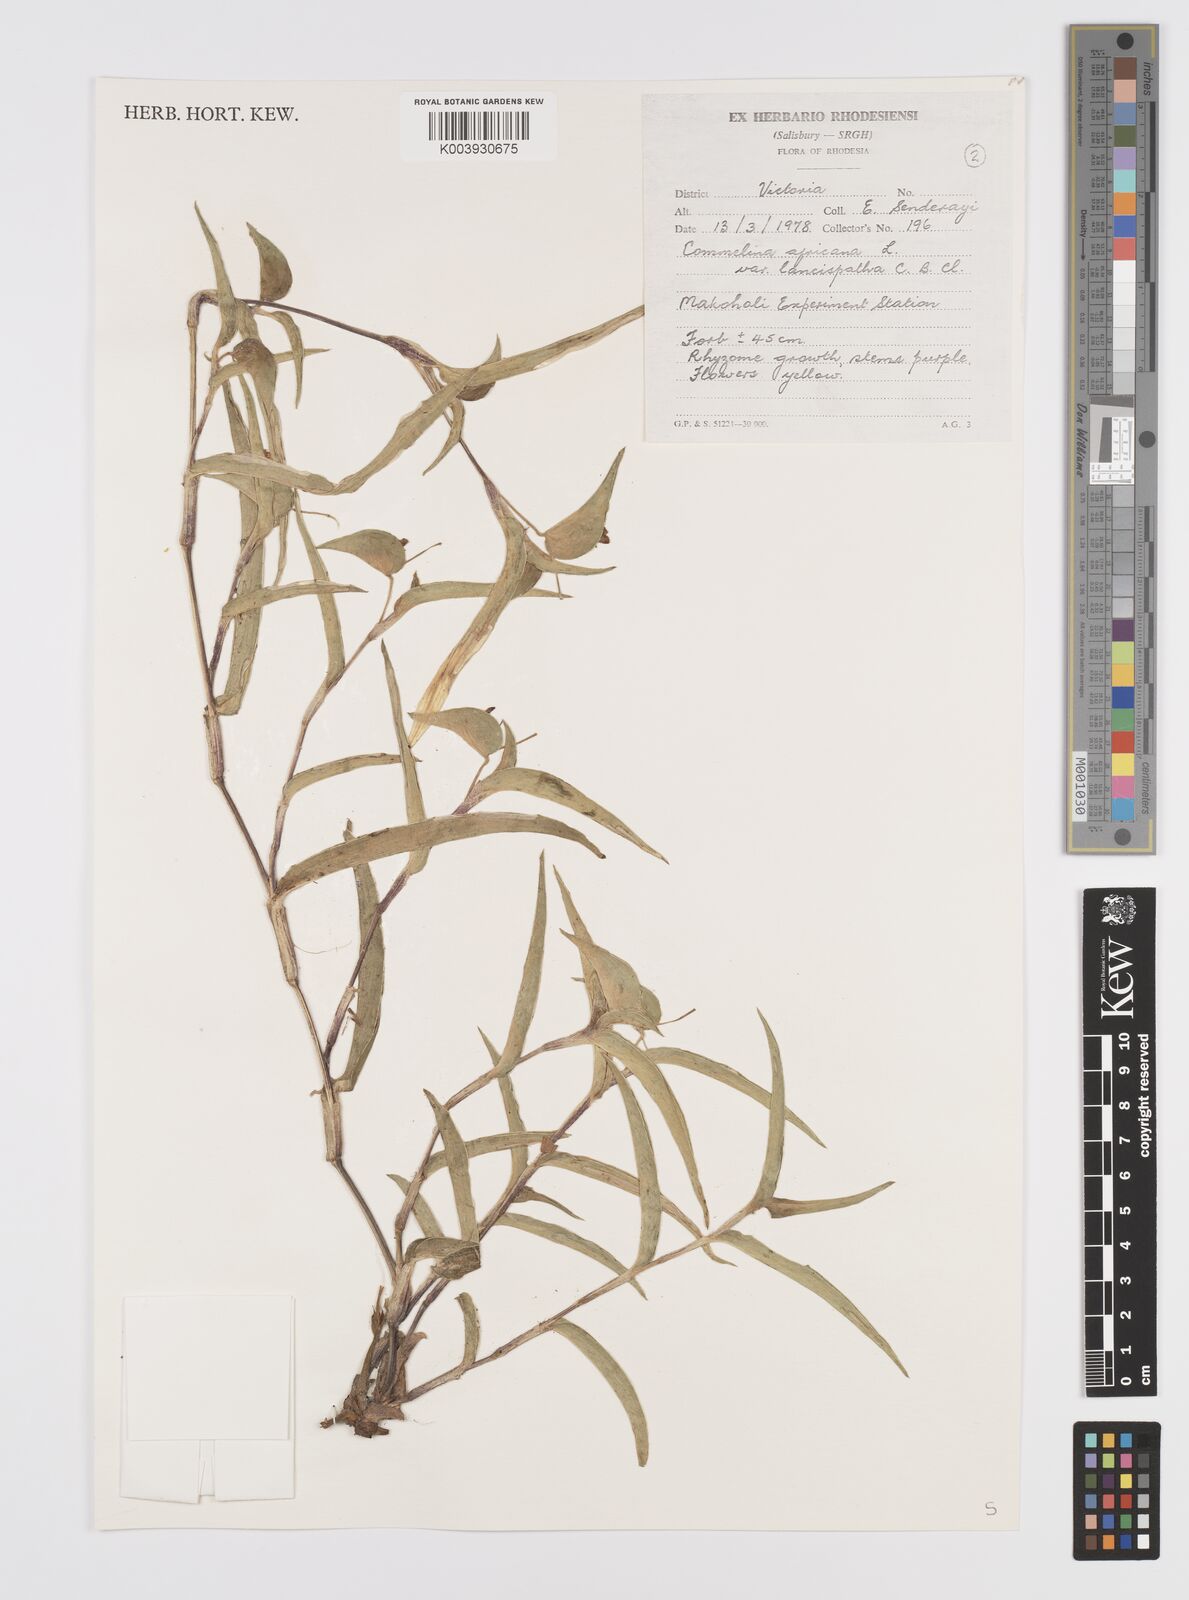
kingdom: Plantae
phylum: Tracheophyta
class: Liliopsida
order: Commelinales
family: Commelinaceae
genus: Commelina
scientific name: Commelina africana
